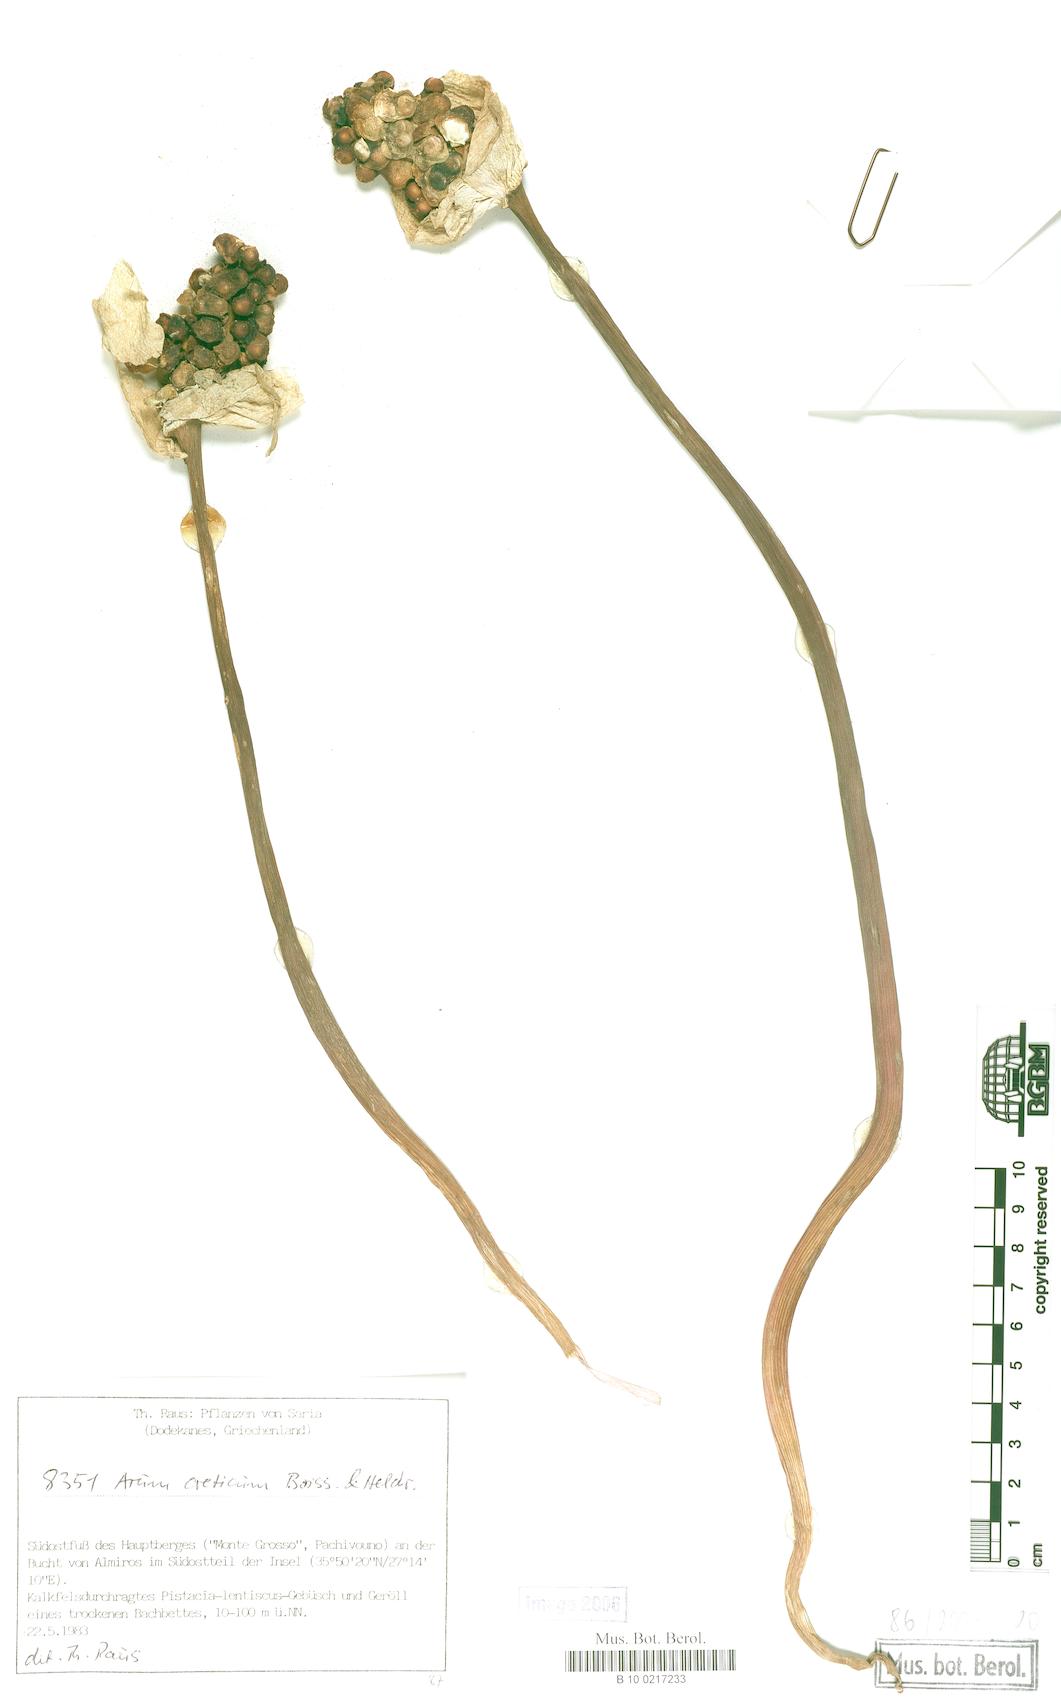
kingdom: Plantae
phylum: Tracheophyta
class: Liliopsida
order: Alismatales
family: Araceae
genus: Arum
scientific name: Arum creticum
